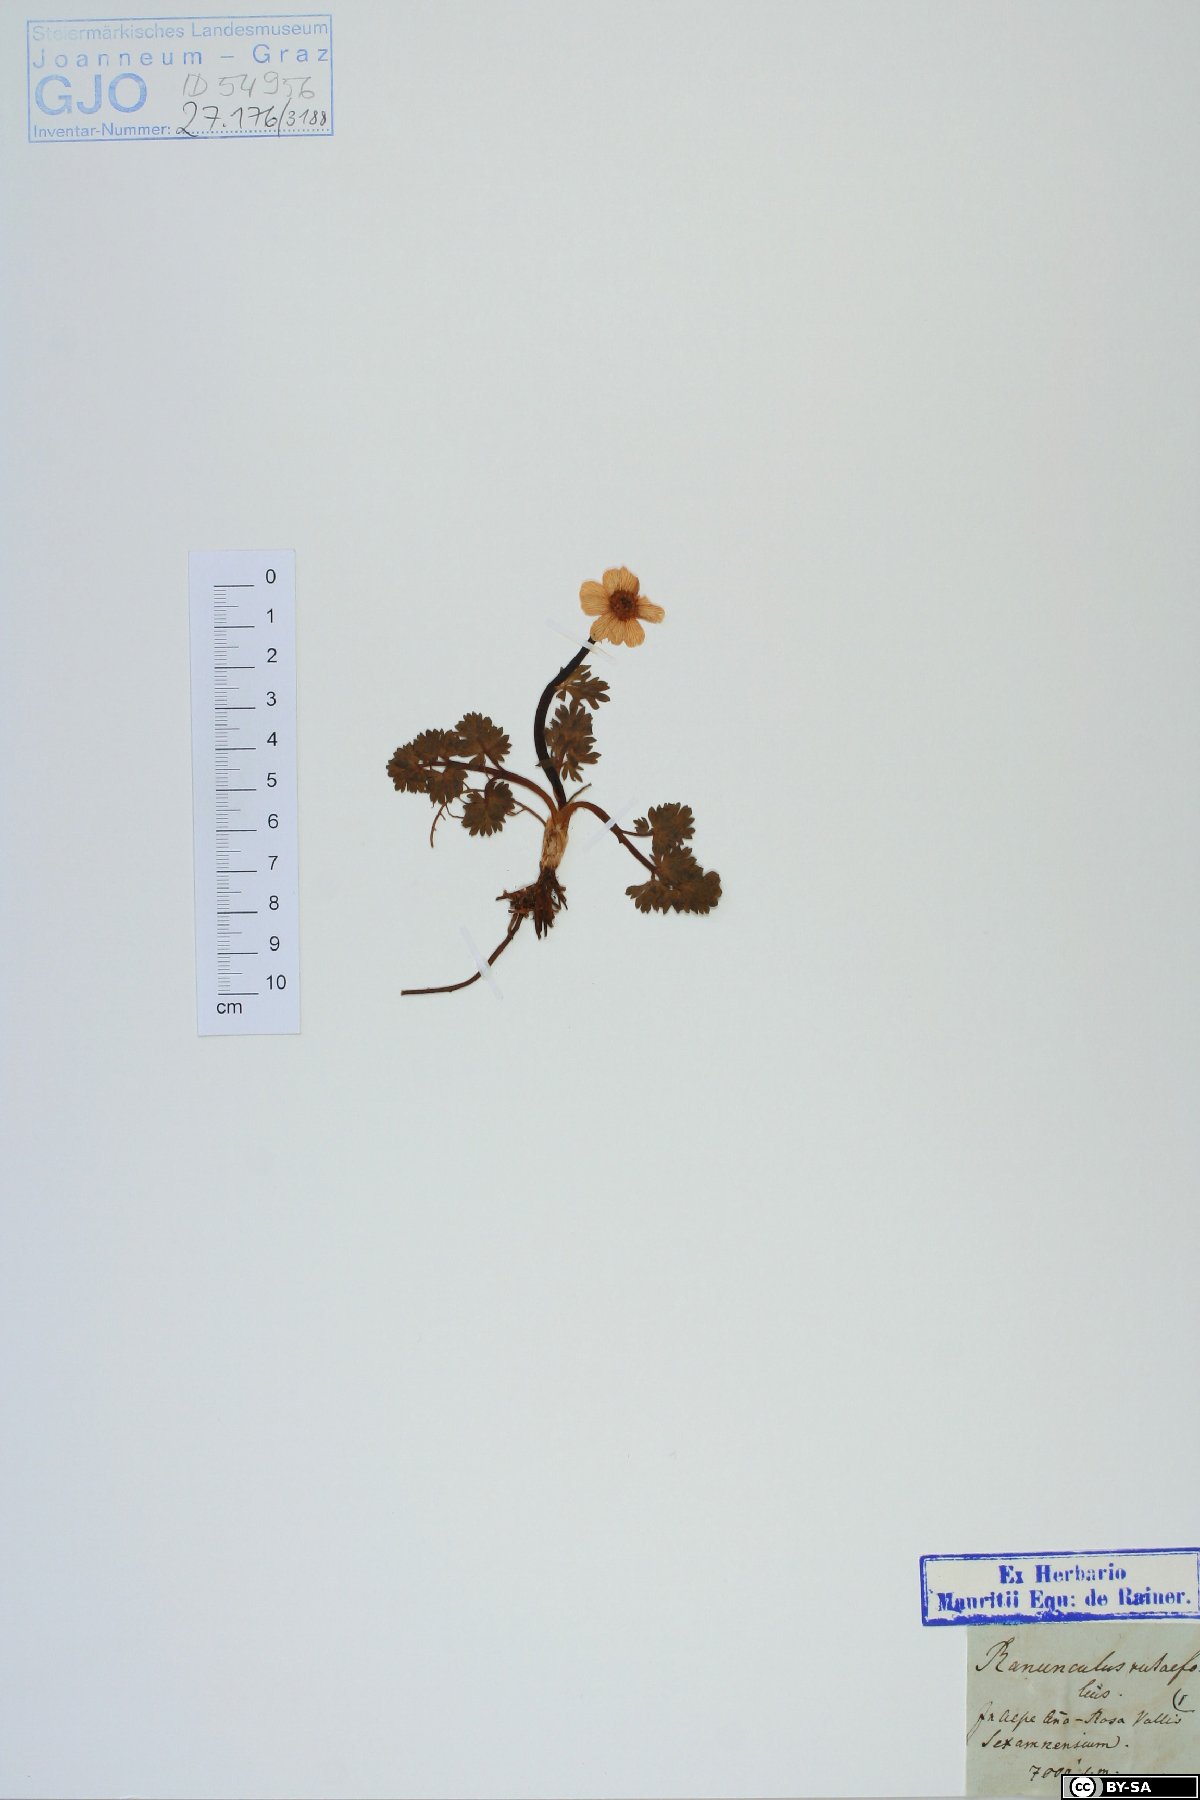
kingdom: Plantae
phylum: Tracheophyta
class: Magnoliopsida
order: Ranunculales
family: Ranunculaceae
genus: Callianthemum
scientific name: Callianthemum anemonoides
